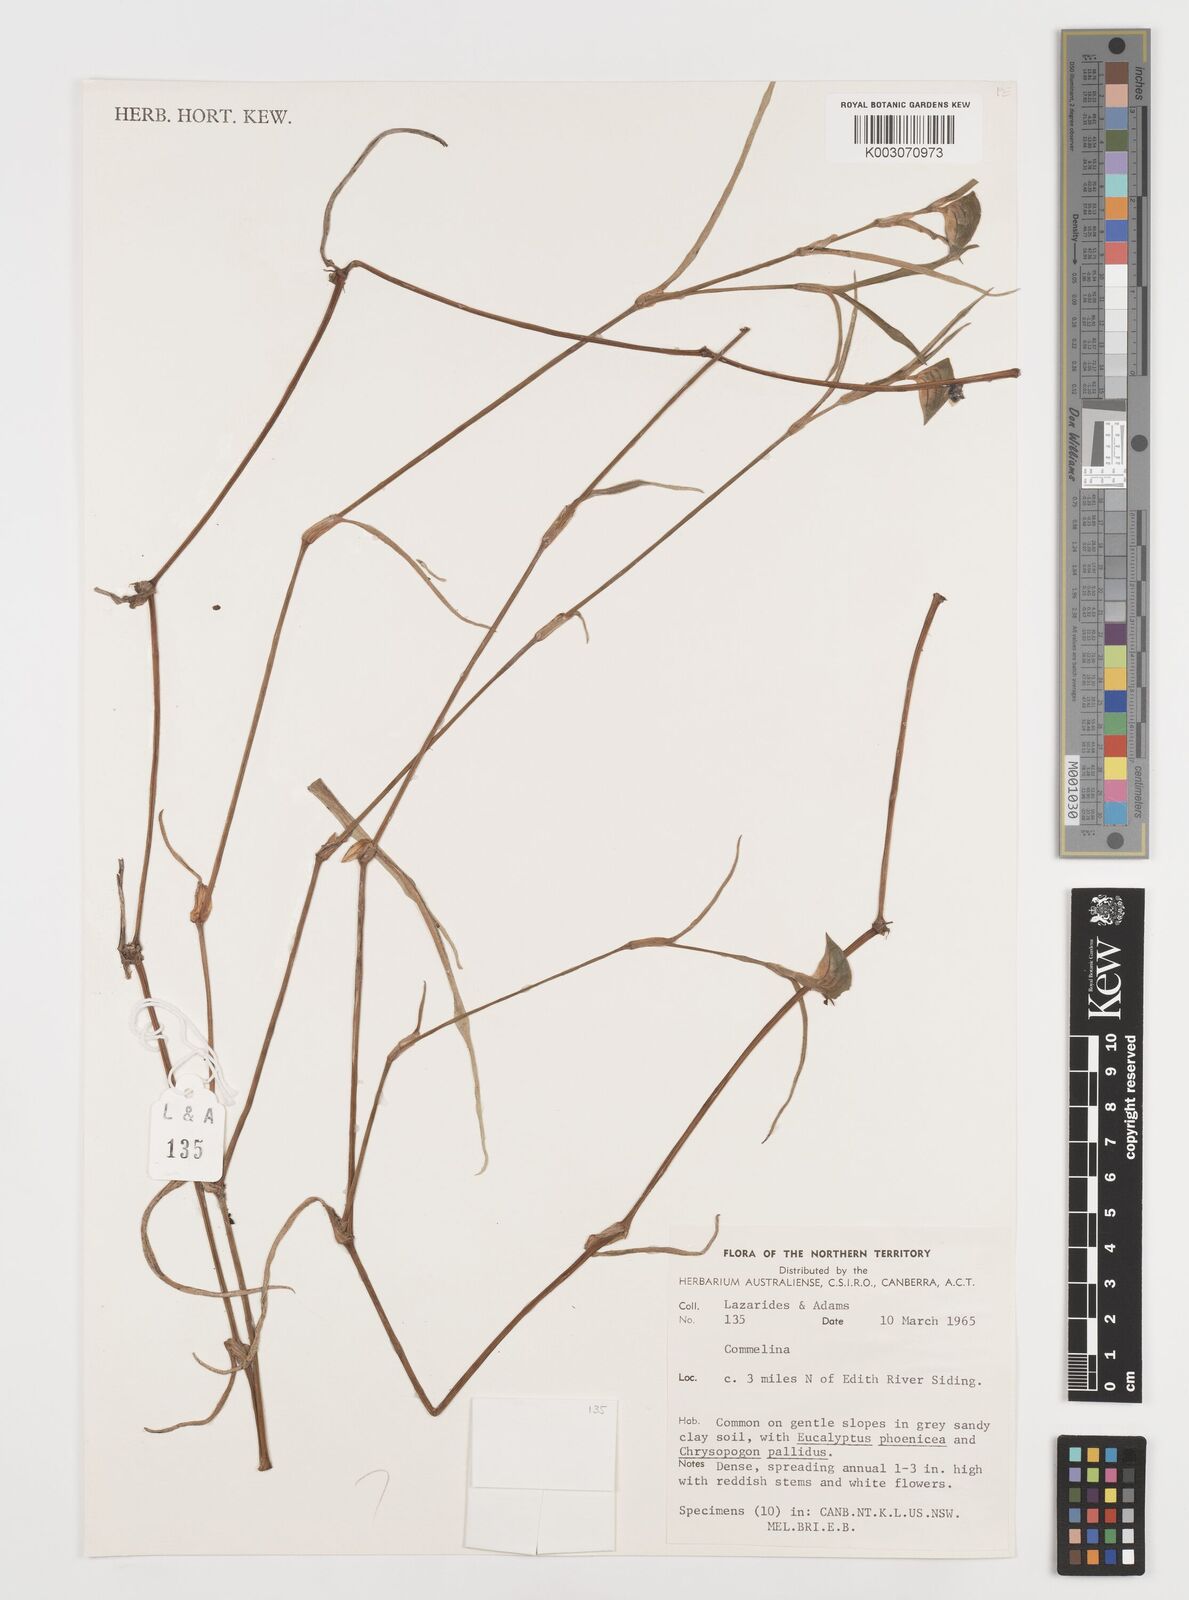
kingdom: Plantae
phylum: Tracheophyta
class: Liliopsida
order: Commelinales
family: Commelinaceae
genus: Commelina
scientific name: Commelina
